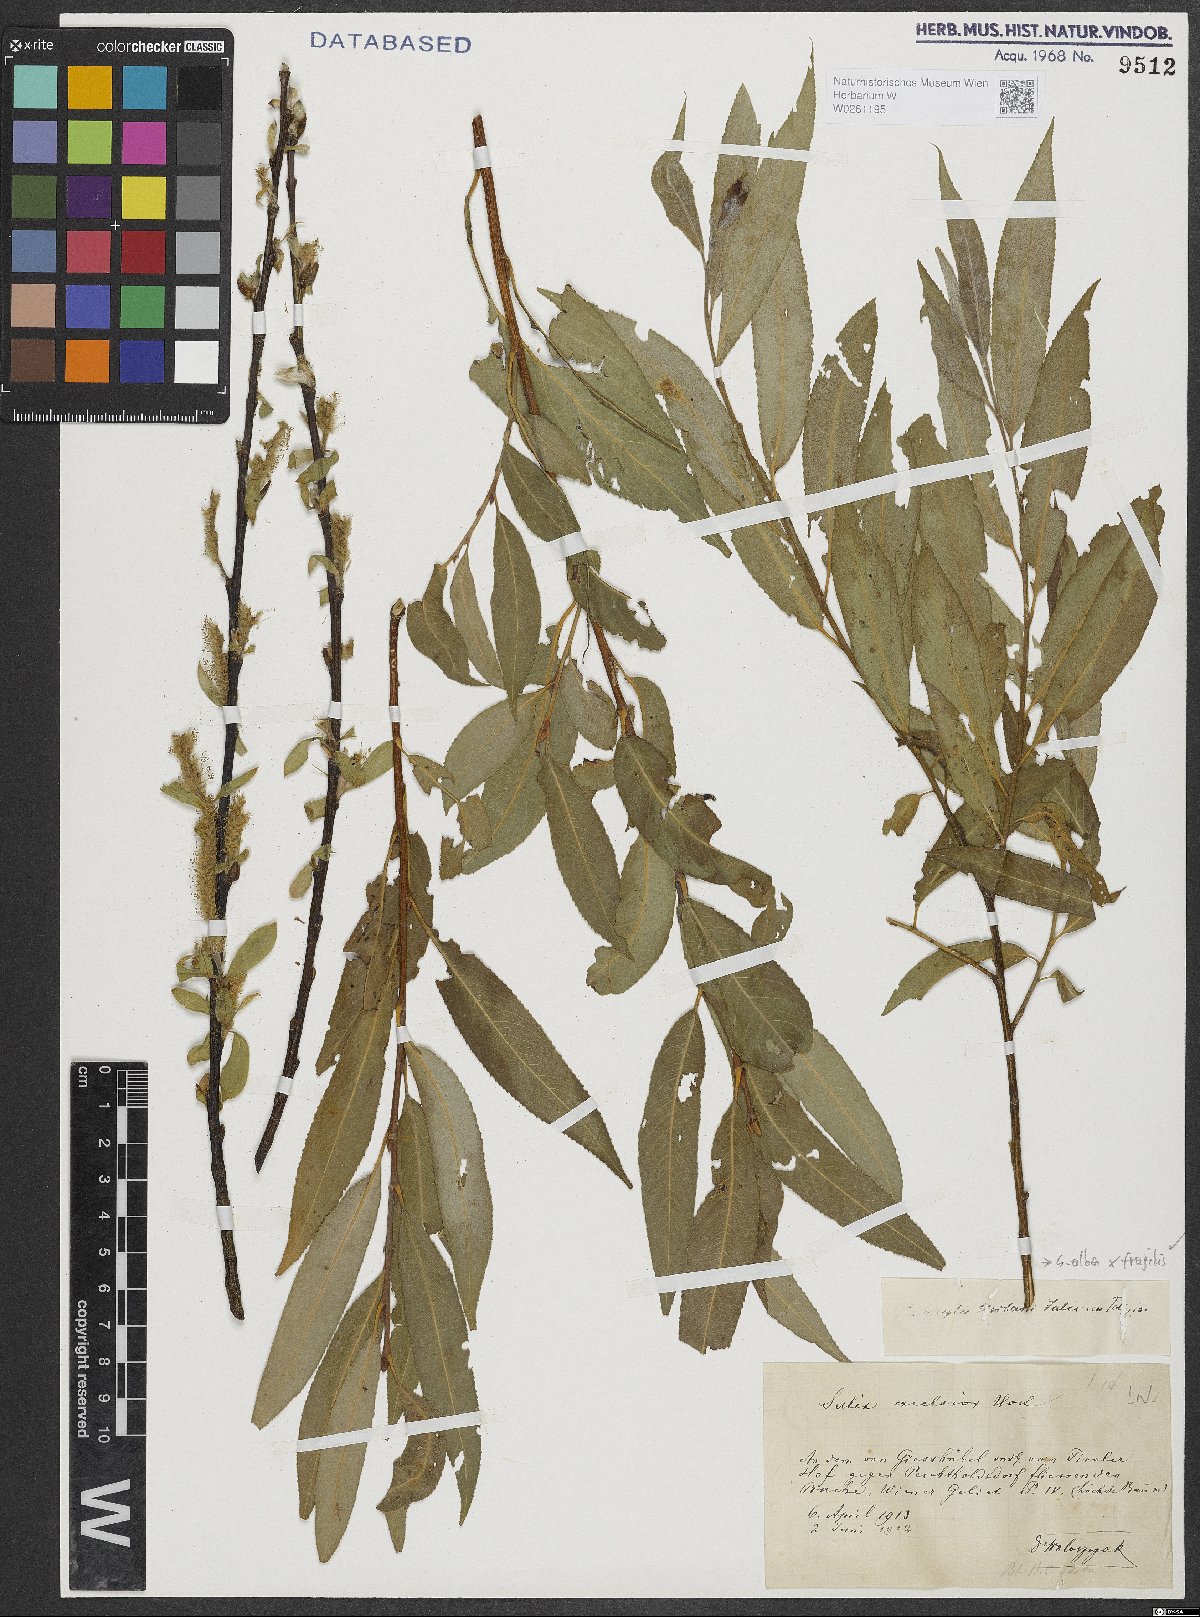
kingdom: Plantae
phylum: Tracheophyta
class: Magnoliopsida
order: Malpighiales
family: Salicaceae
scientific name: Salicaceae
